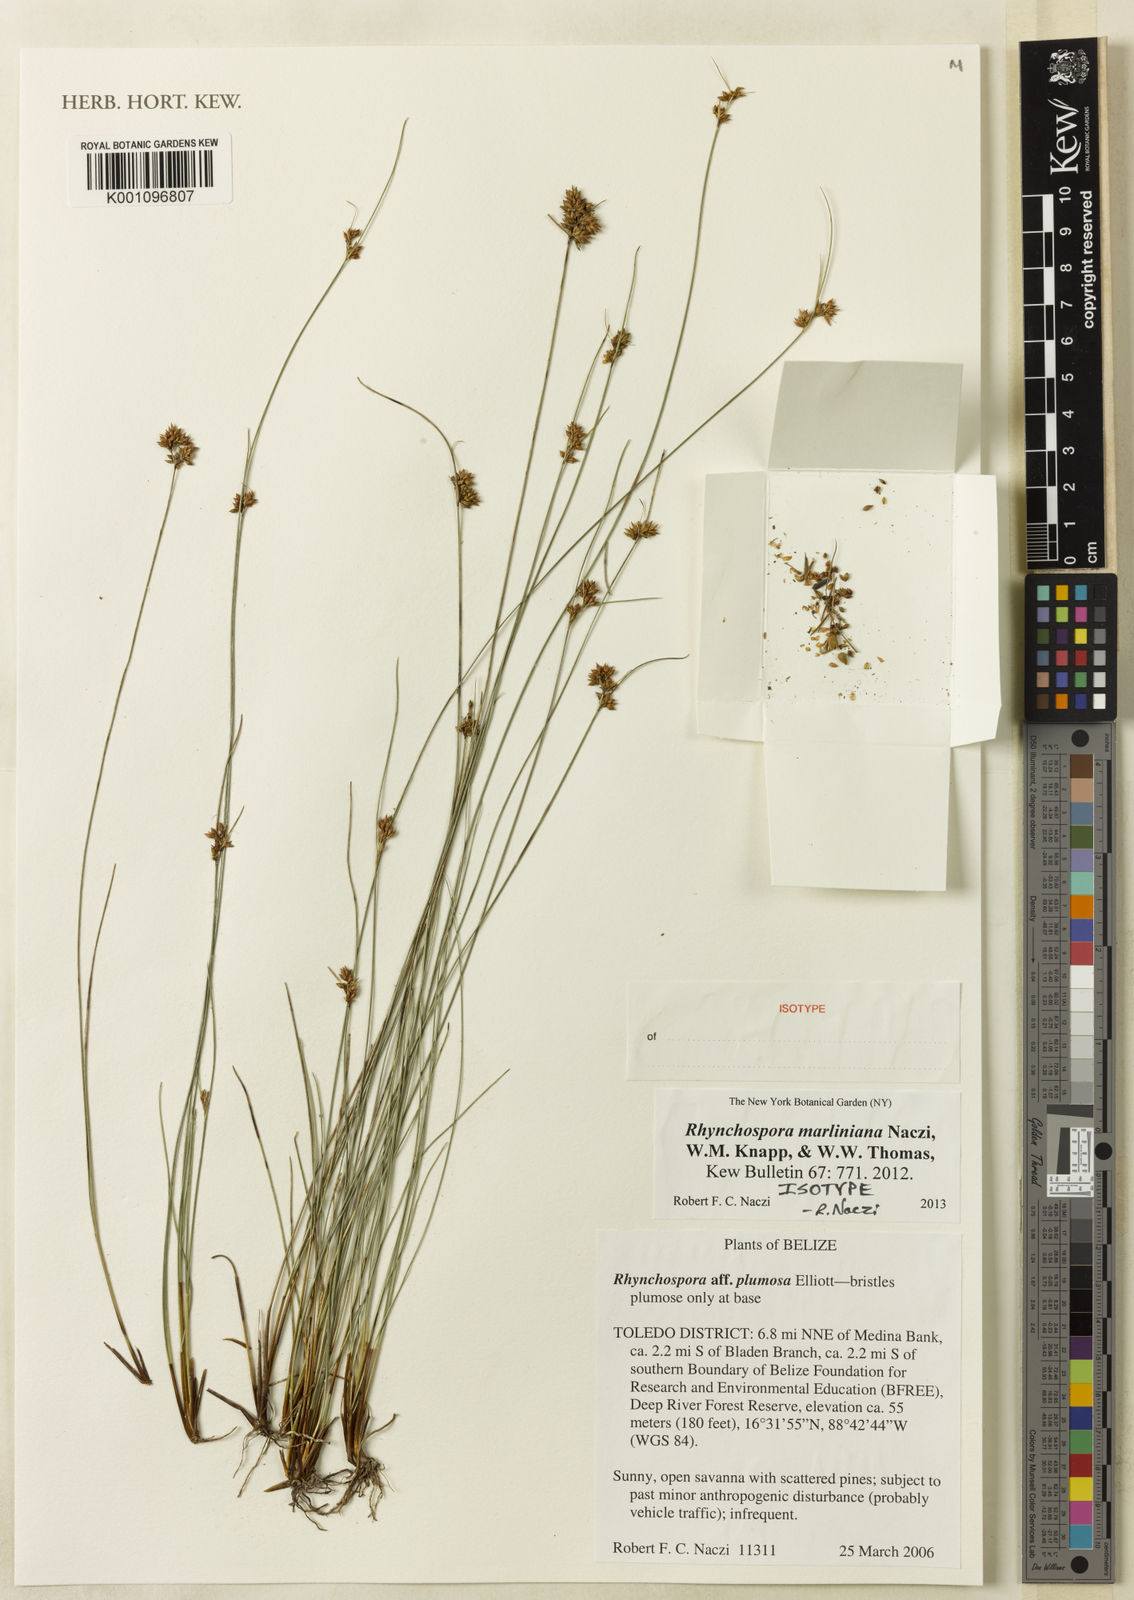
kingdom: Plantae
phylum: Tracheophyta
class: Liliopsida
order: Poales
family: Cyperaceae
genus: Rhynchospora
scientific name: Rhynchospora marliniana
